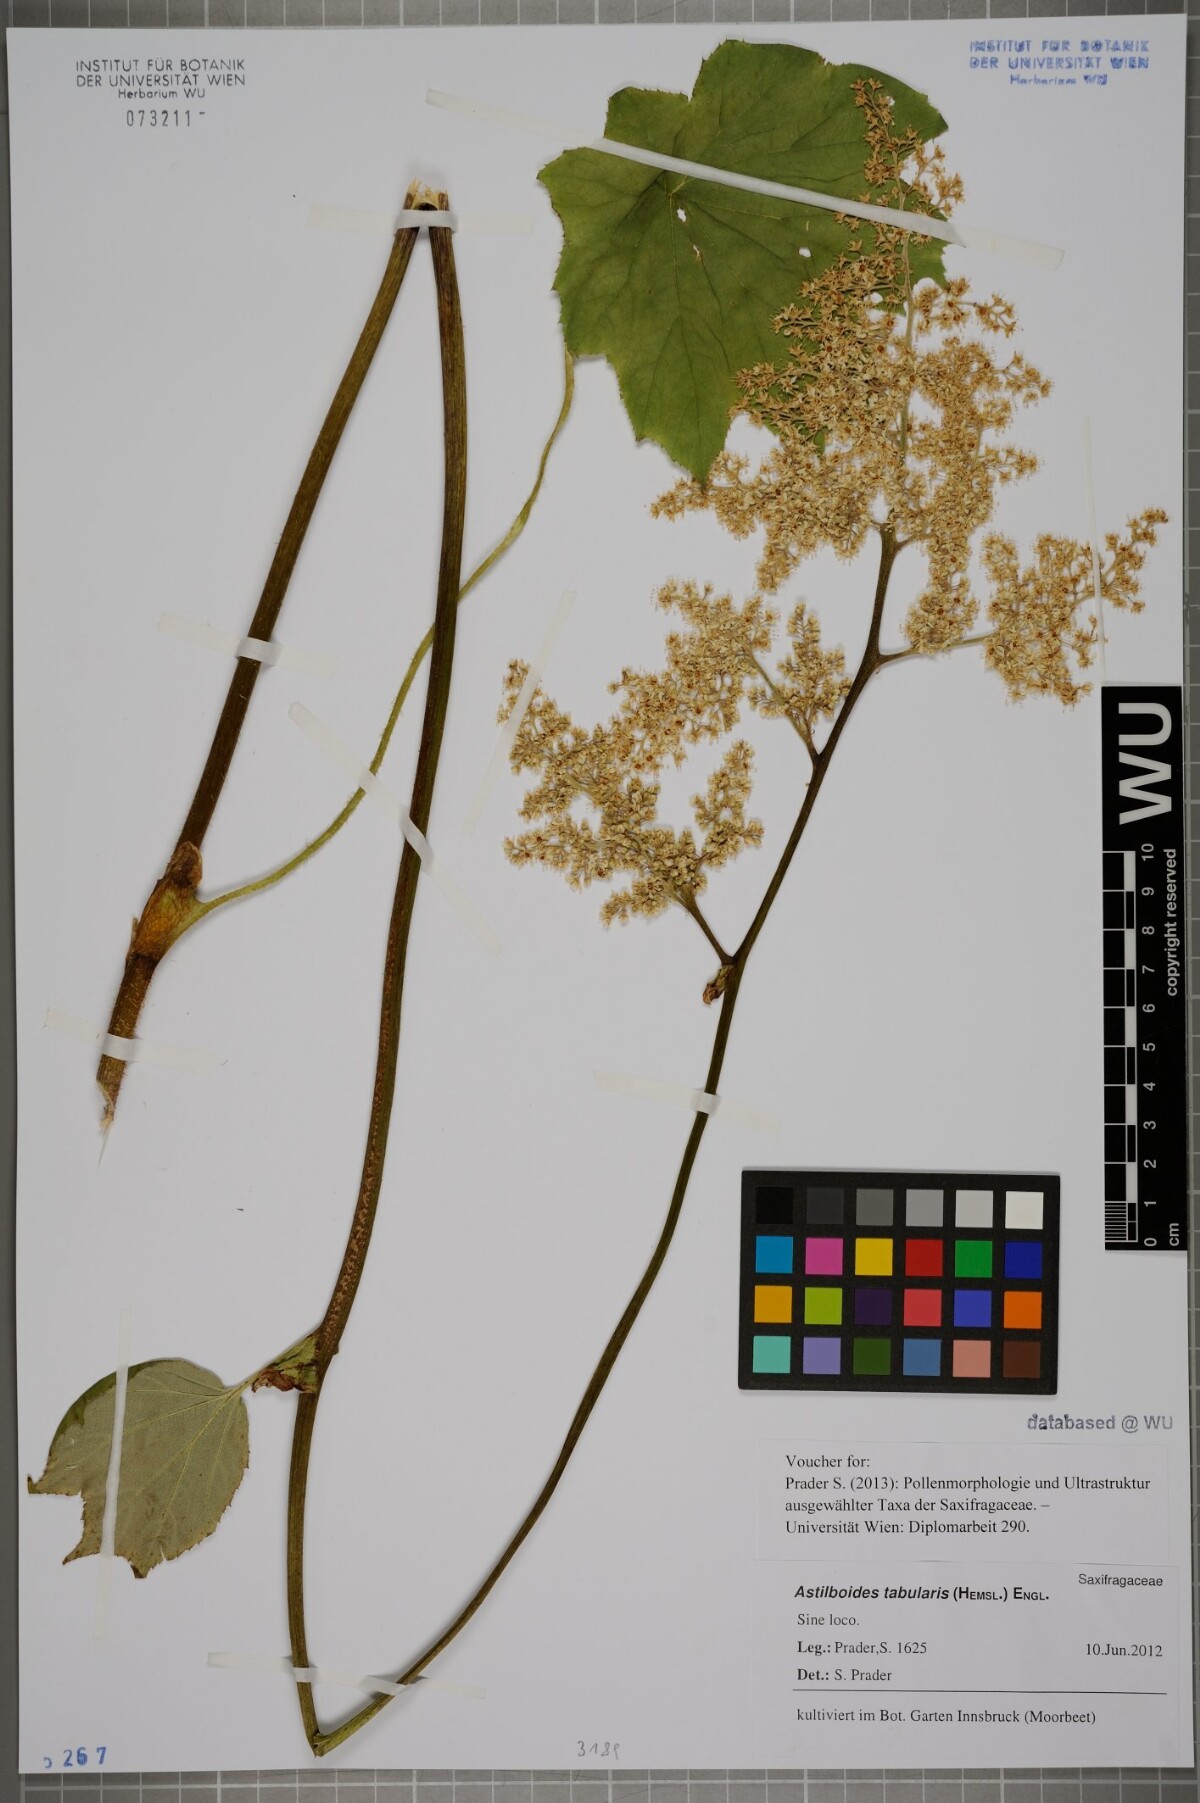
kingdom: Plantae
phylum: Tracheophyta
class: Magnoliopsida
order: Saxifragales
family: Saxifragaceae
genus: Astilboides
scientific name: Astilboides tabularis
